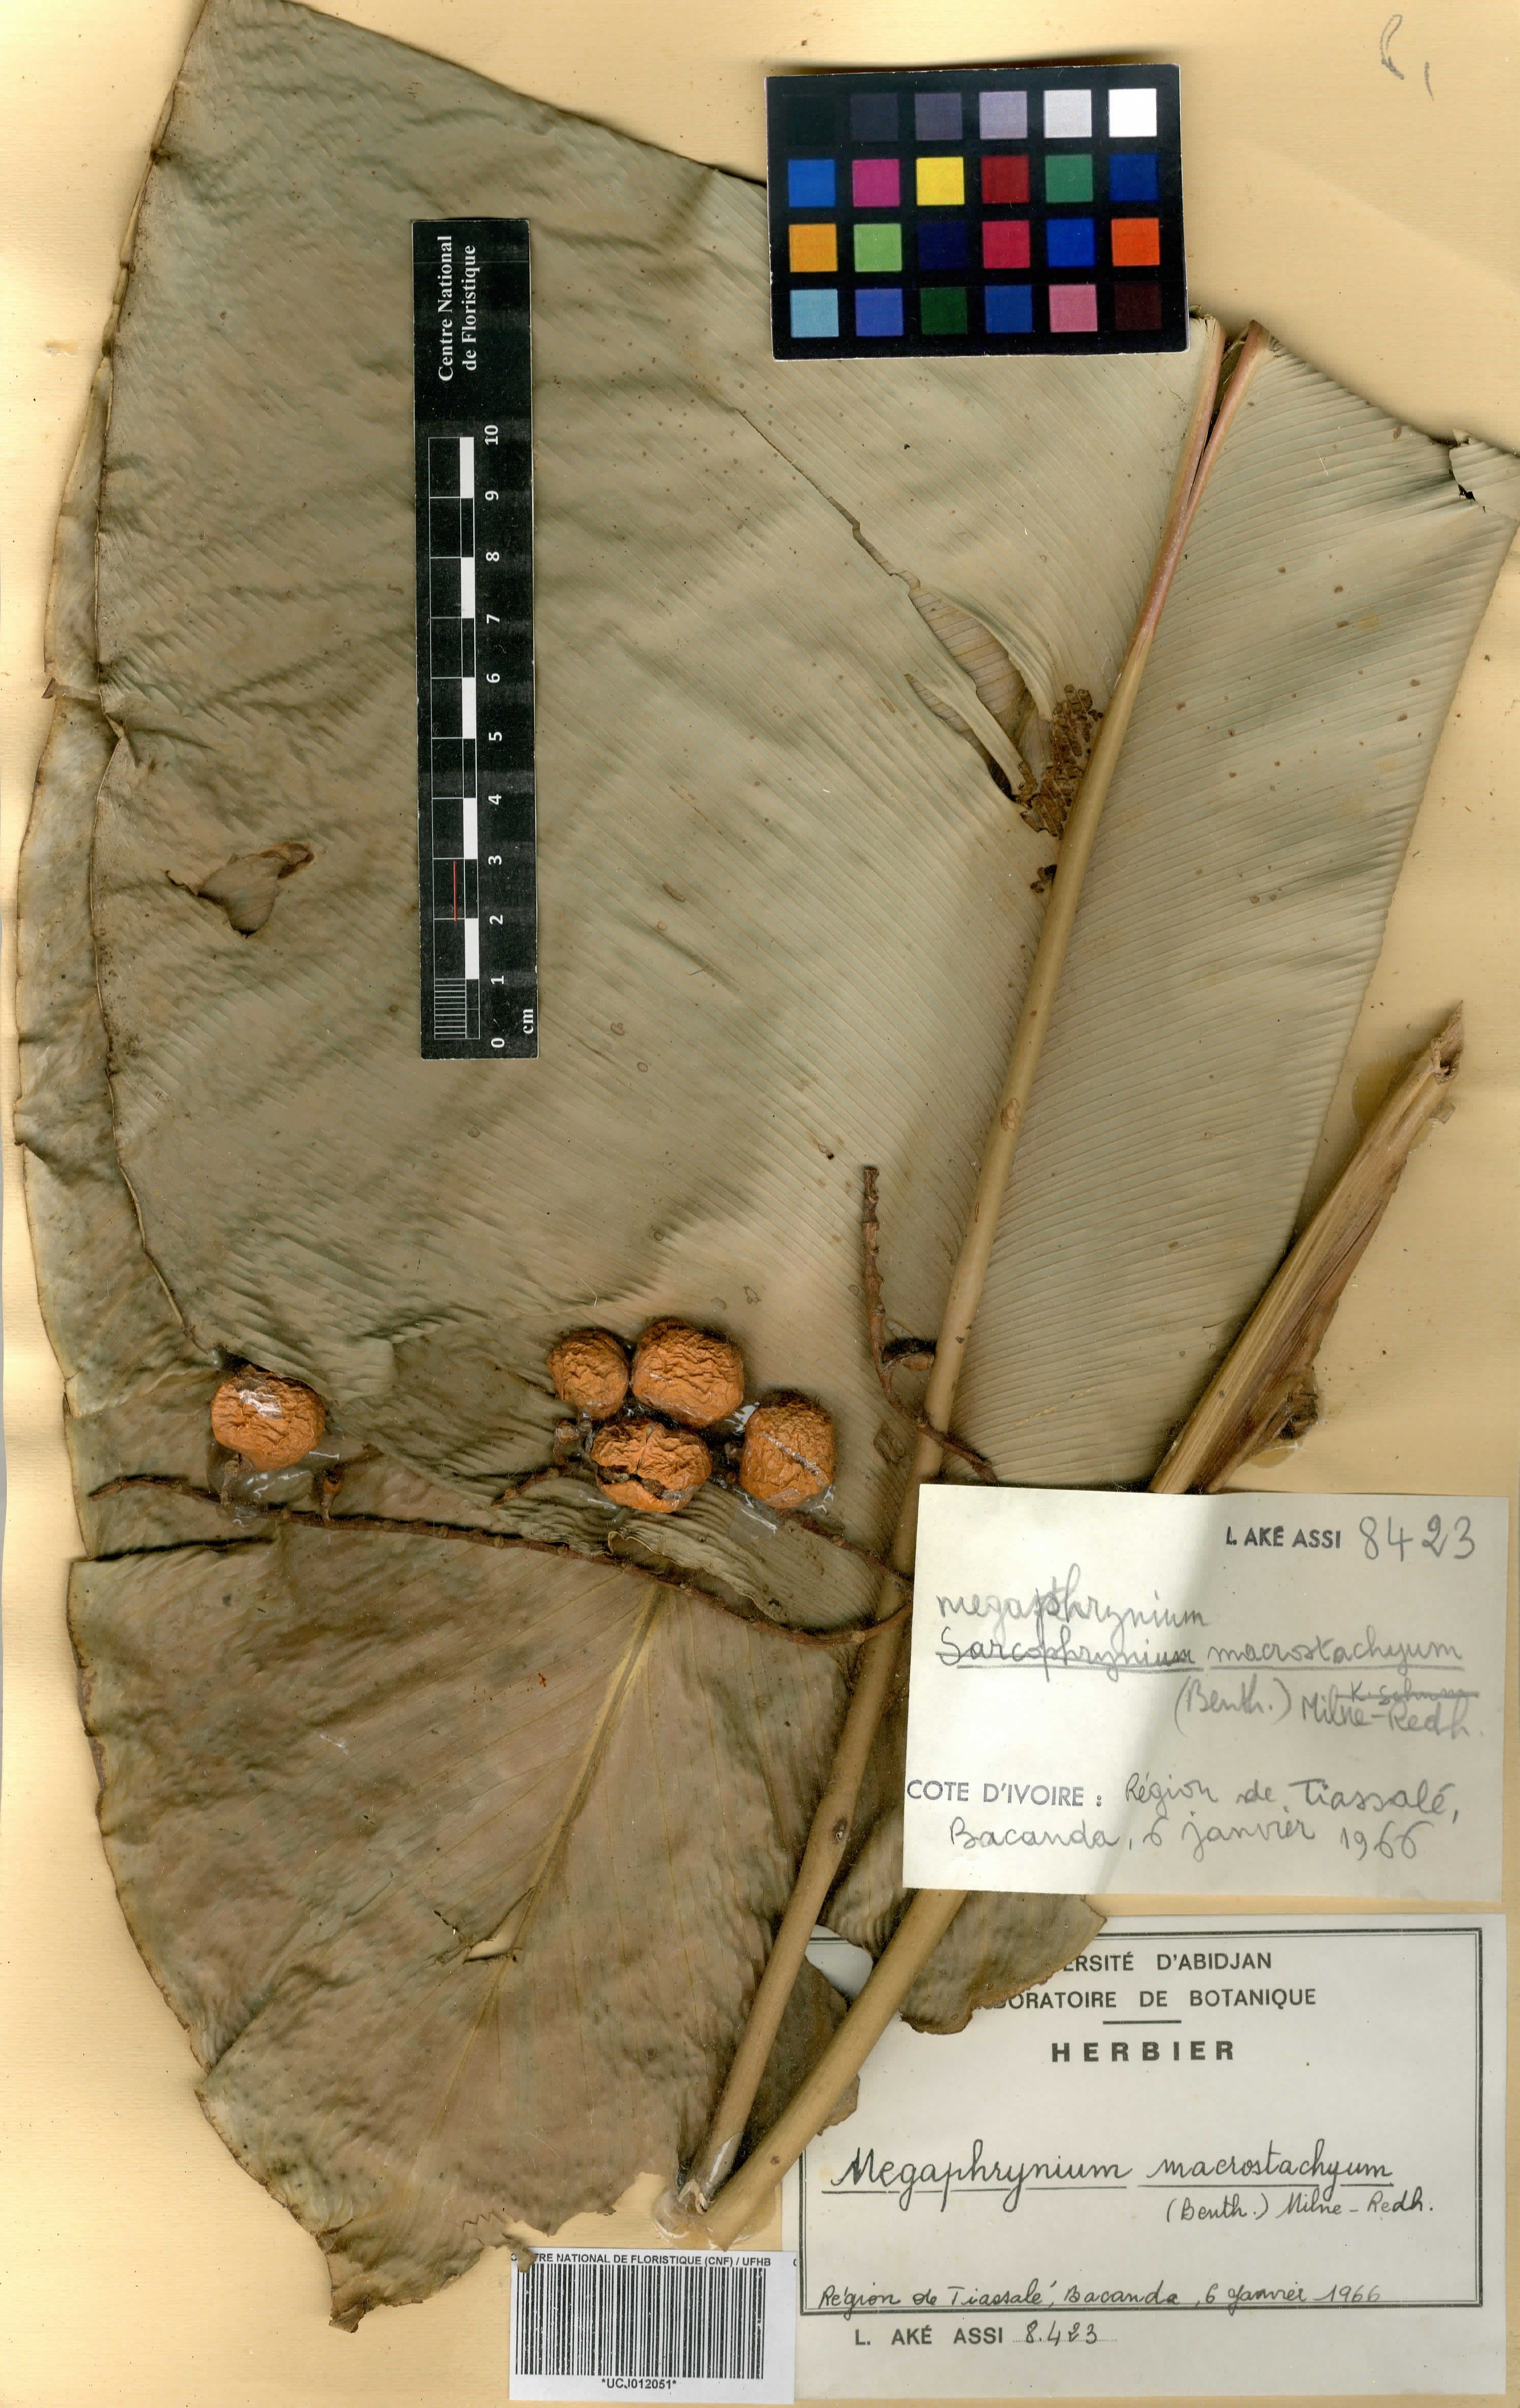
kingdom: Plantae
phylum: Tracheophyta
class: Liliopsida
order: Zingiberales
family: Marantaceae
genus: Megaphrynium
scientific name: Megaphrynium macrostachyum
